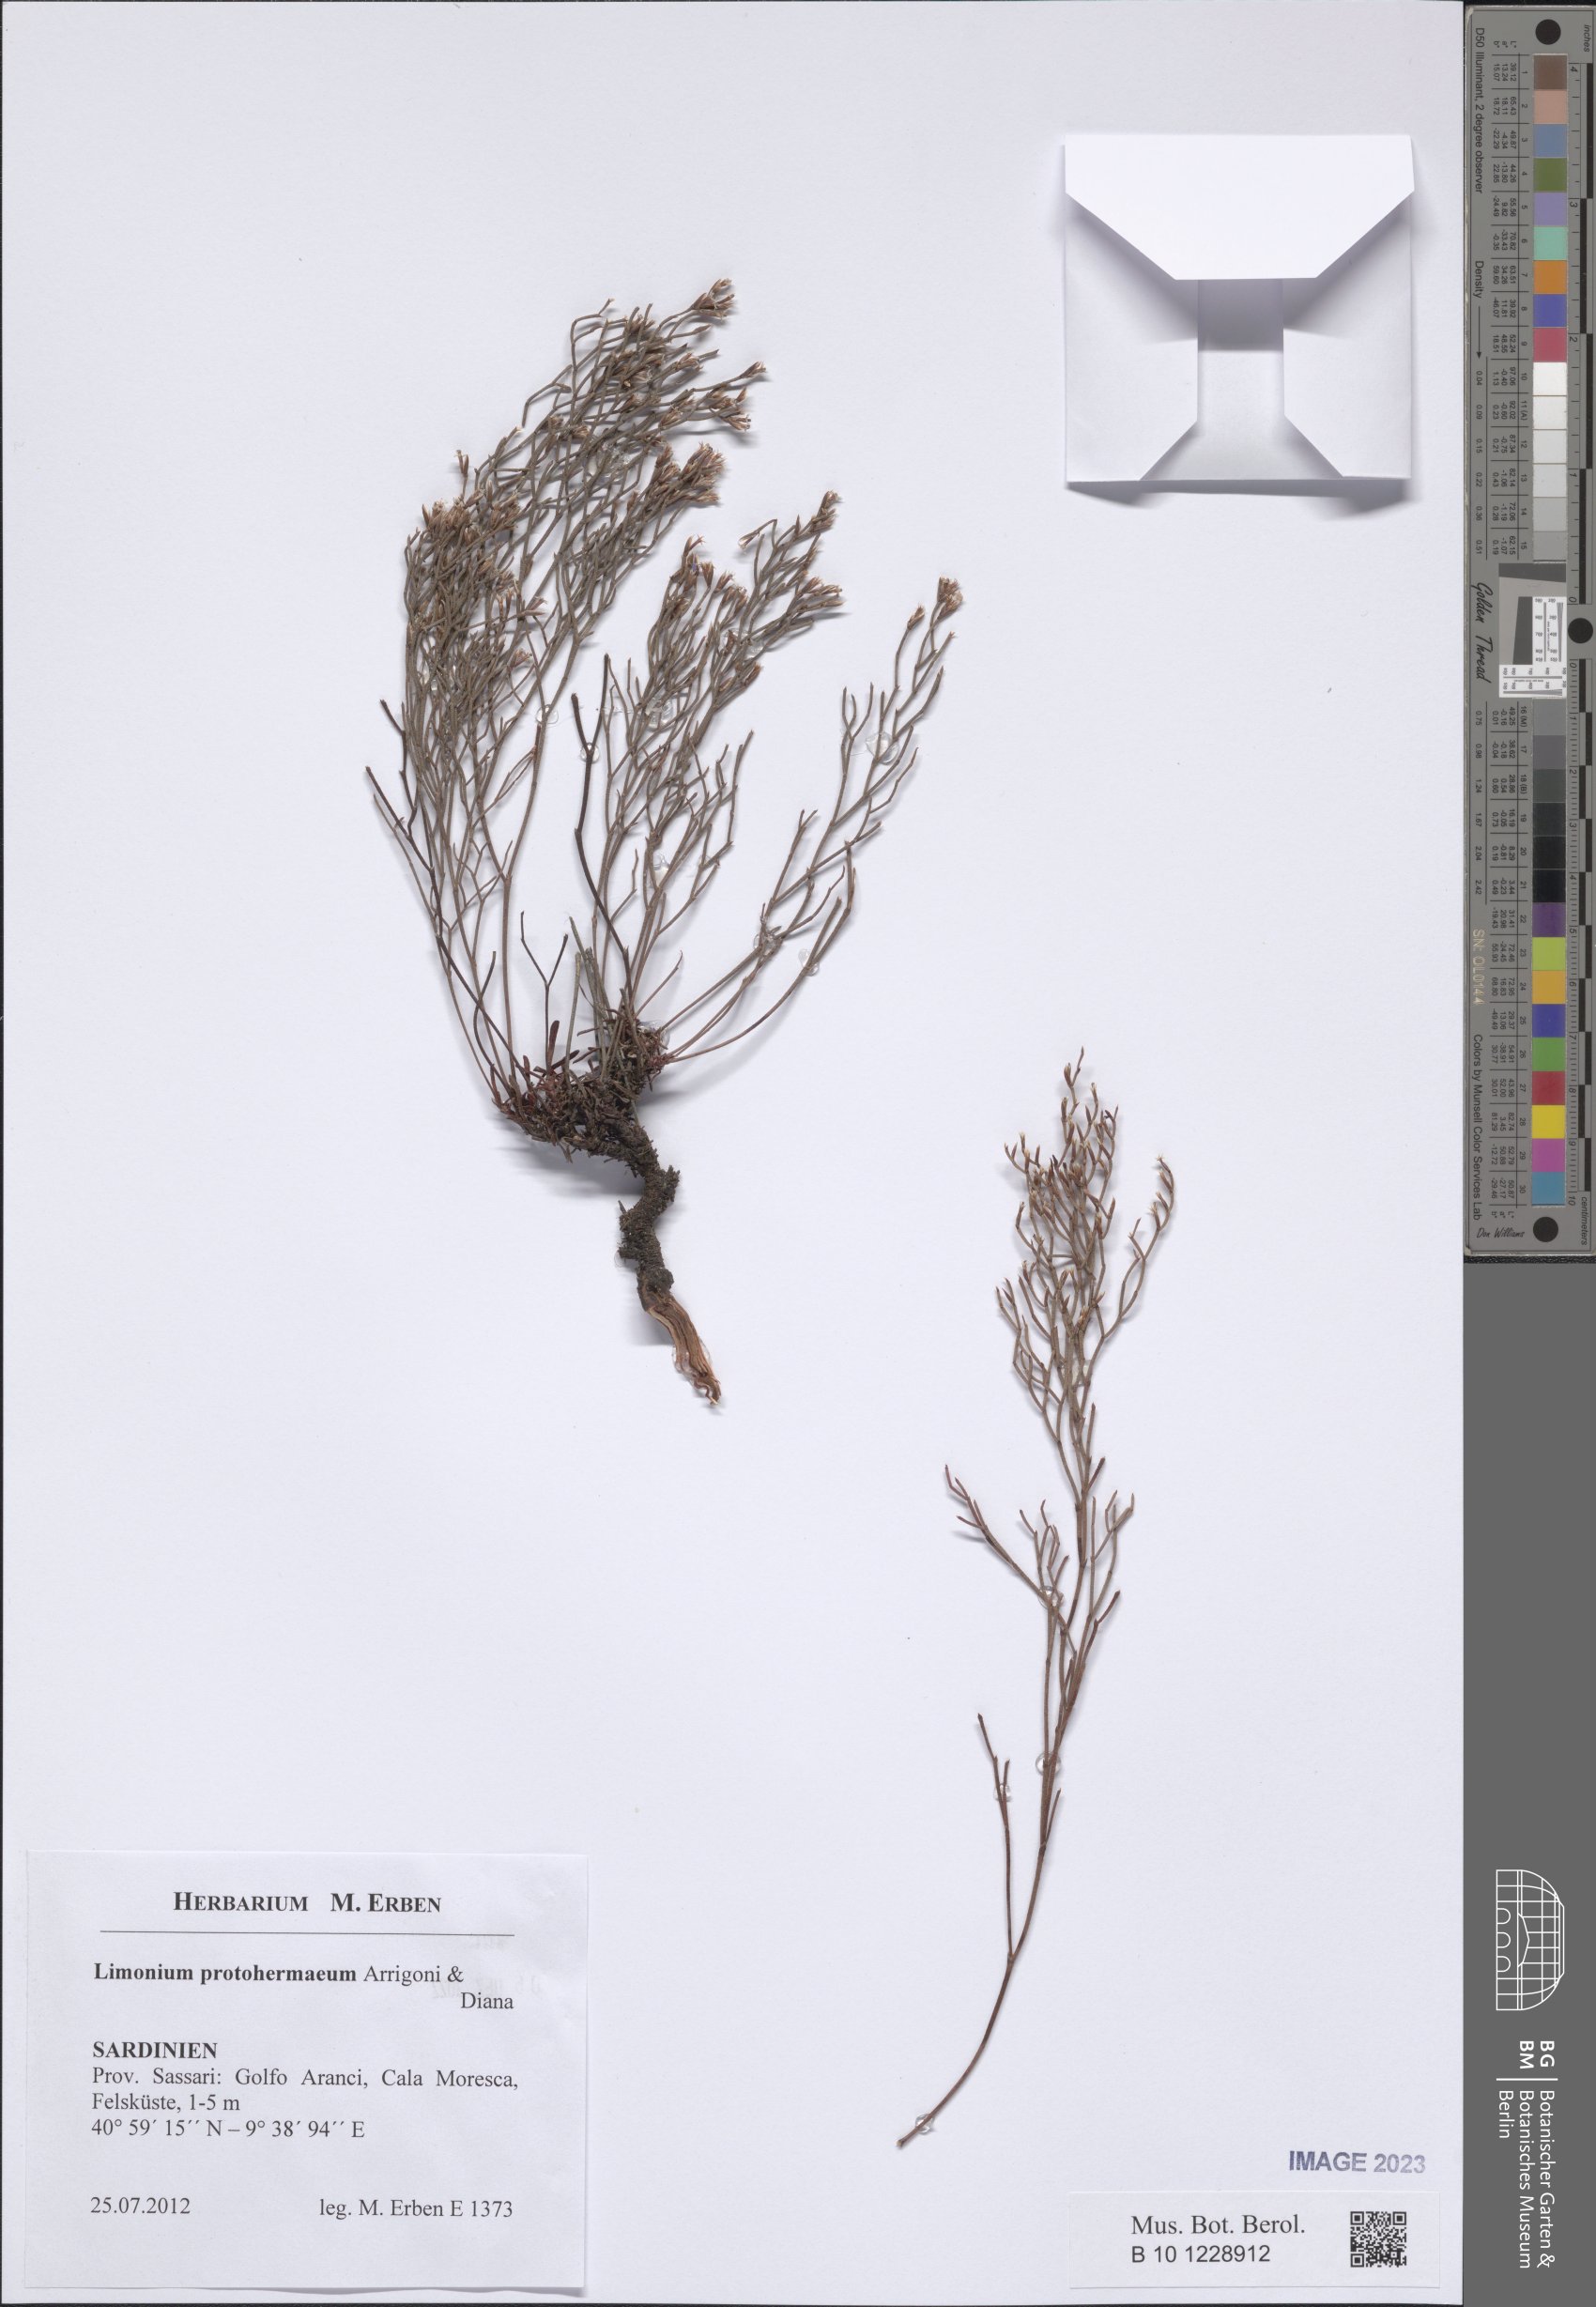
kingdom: Plantae
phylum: Tracheophyta
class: Magnoliopsida
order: Caryophyllales
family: Plumbaginaceae
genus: Limonium
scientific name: Limonium protohermaeum
